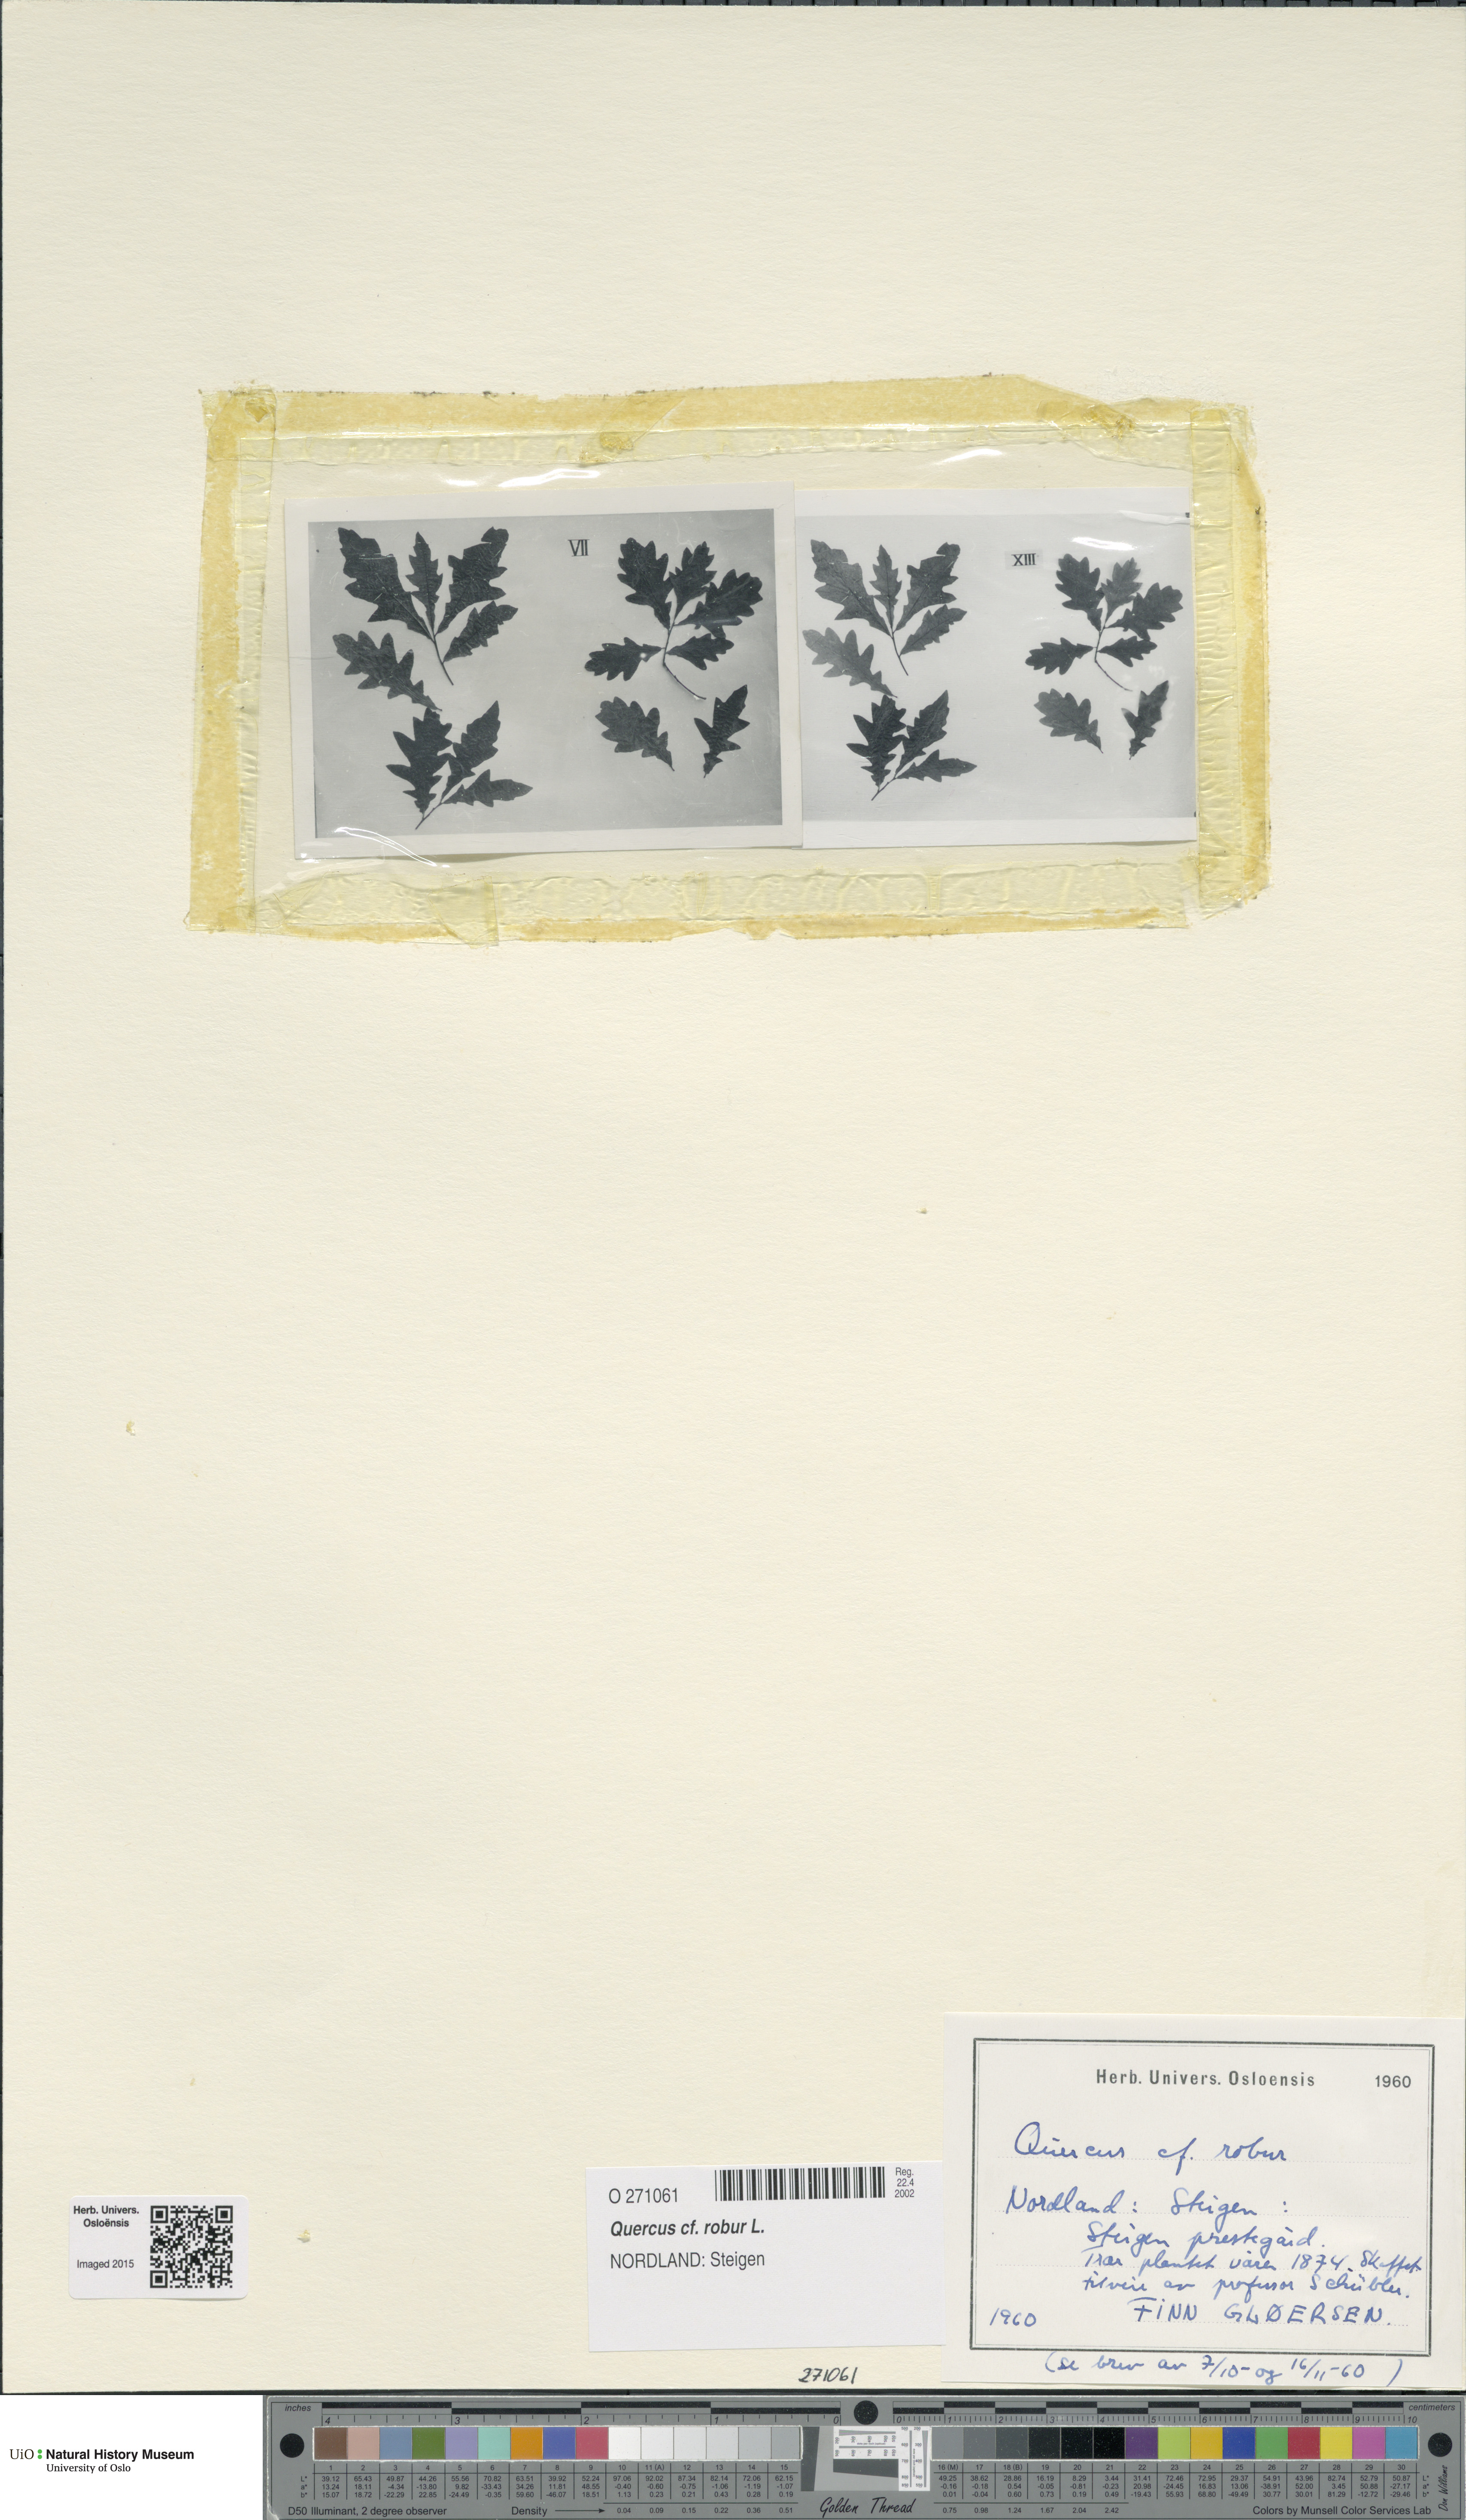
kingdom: Plantae
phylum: Tracheophyta
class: Magnoliopsida
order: Fagales
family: Fagaceae
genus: Quercus
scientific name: Quercus robur
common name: Pedunculate oak
